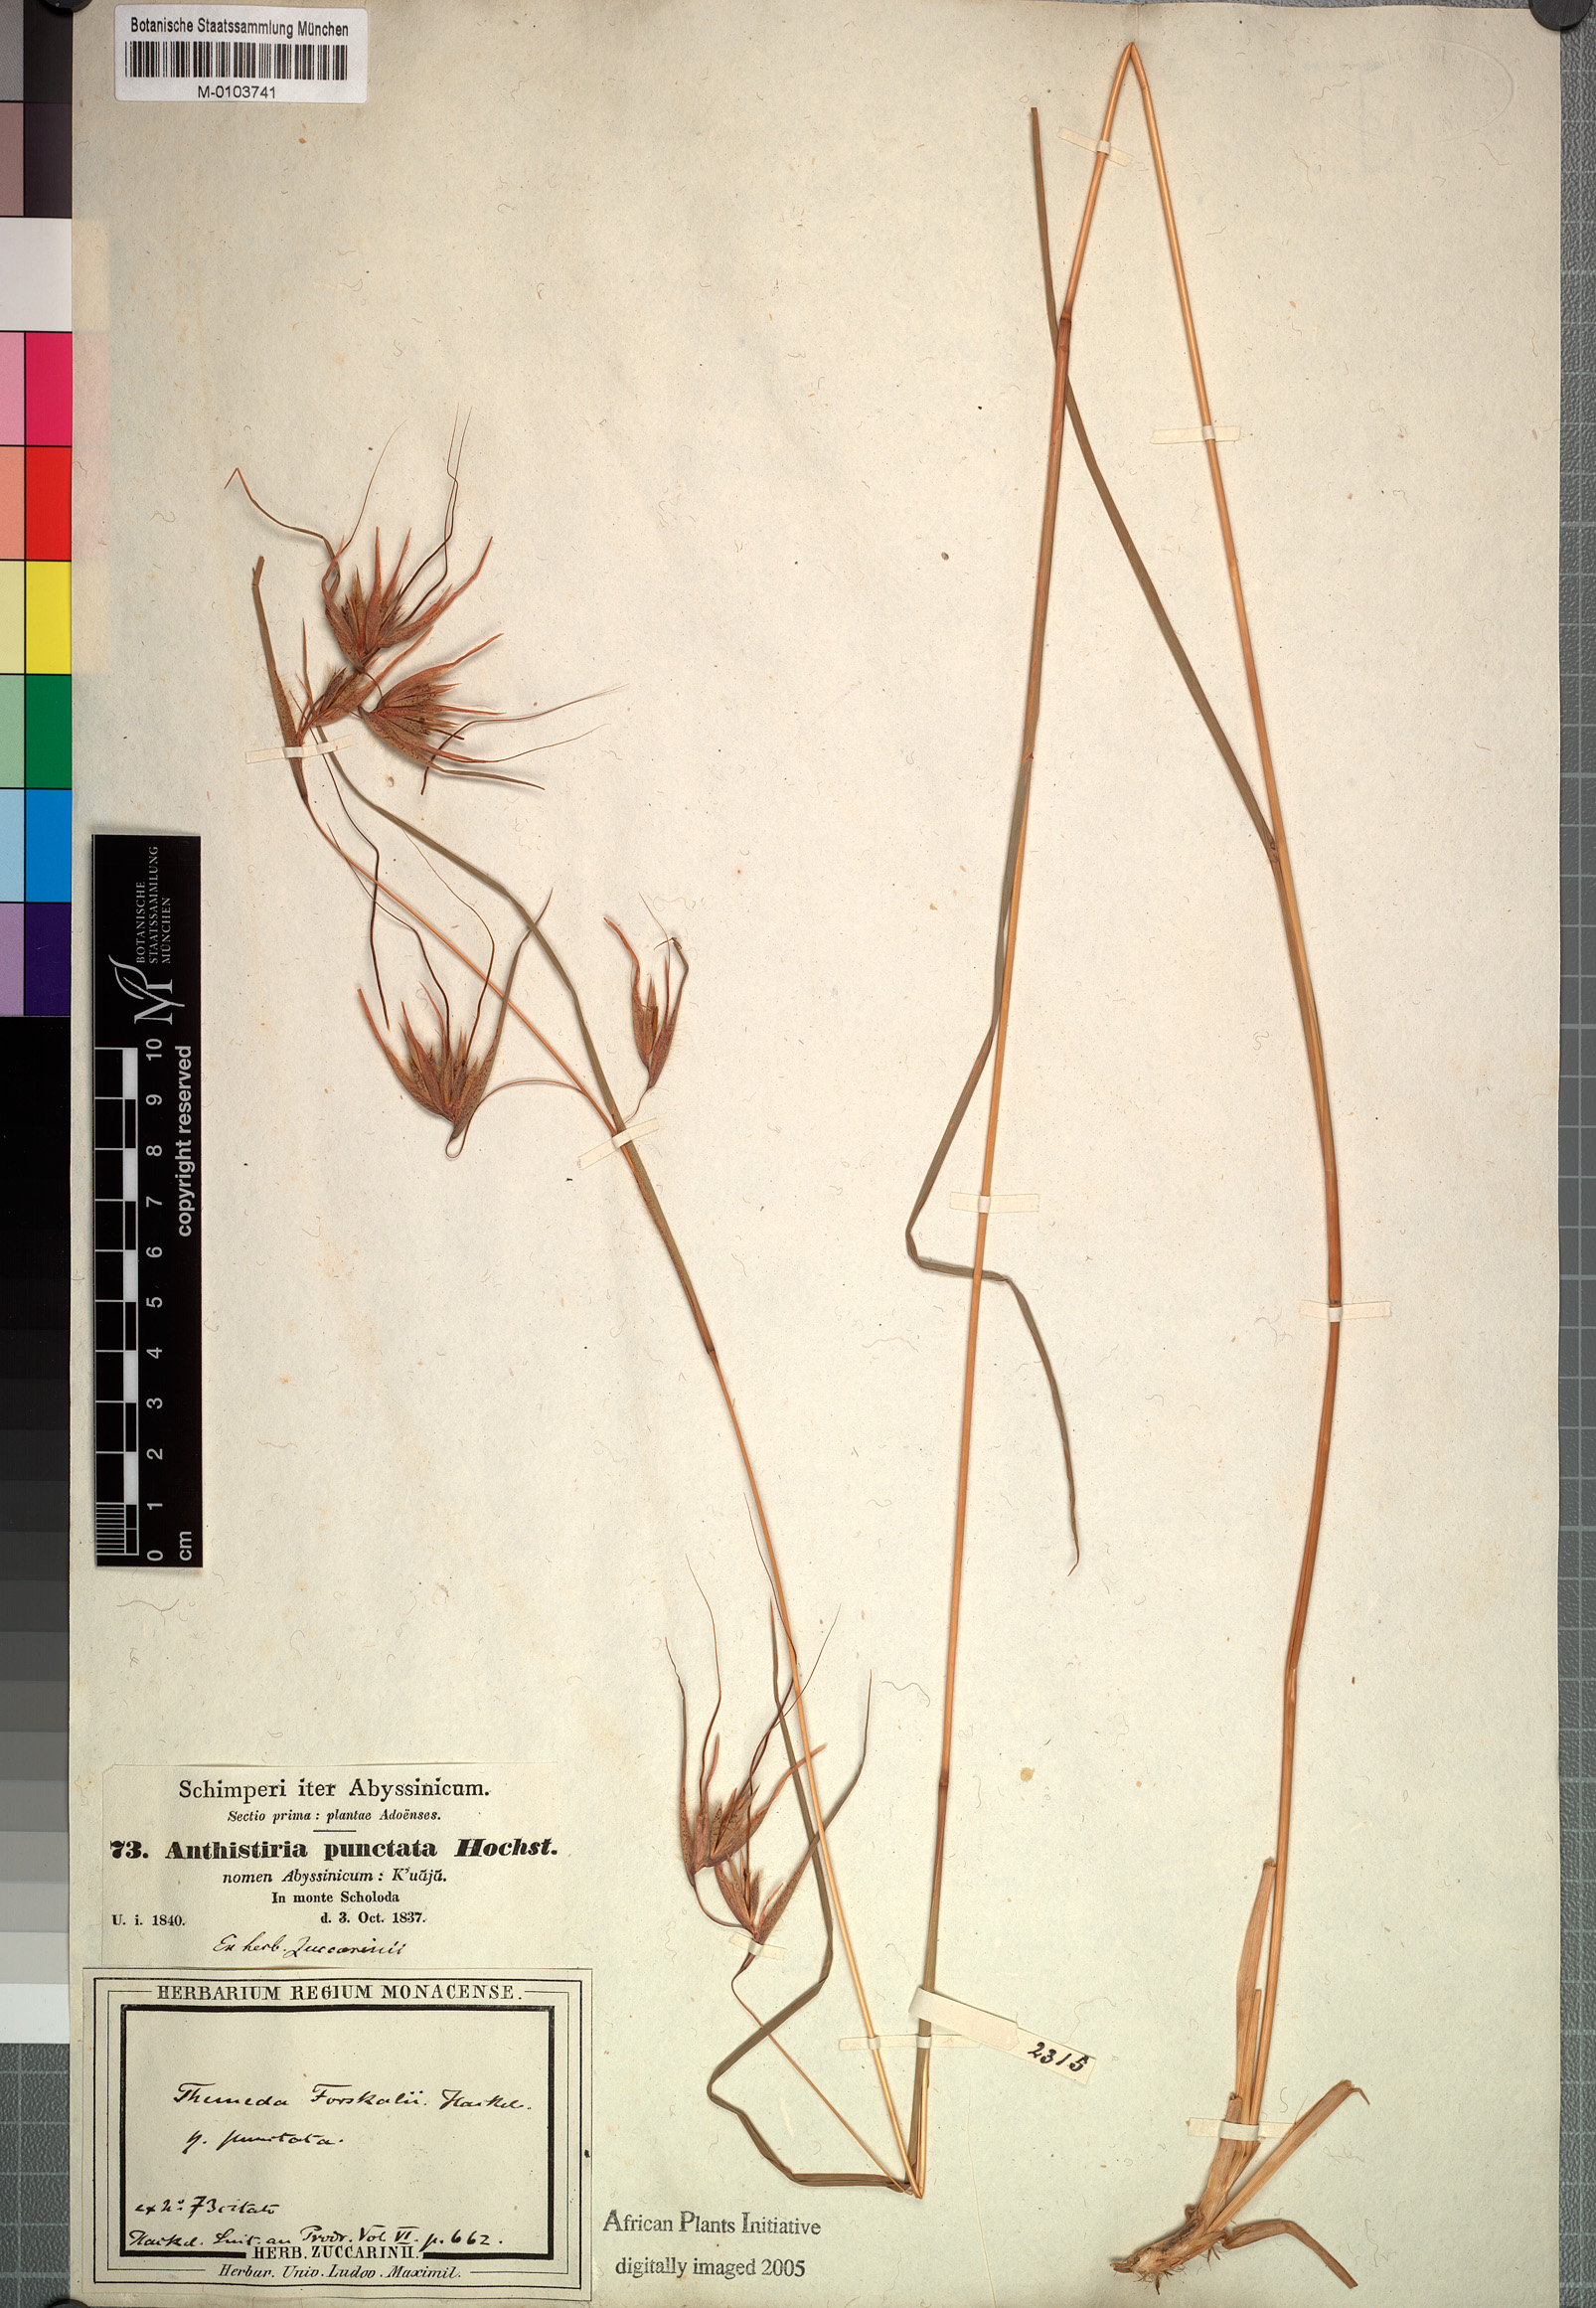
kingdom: Plantae
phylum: Tracheophyta
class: Liliopsida
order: Poales
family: Poaceae
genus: Themeda
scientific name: Themeda triandra
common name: Kangaroo grass
